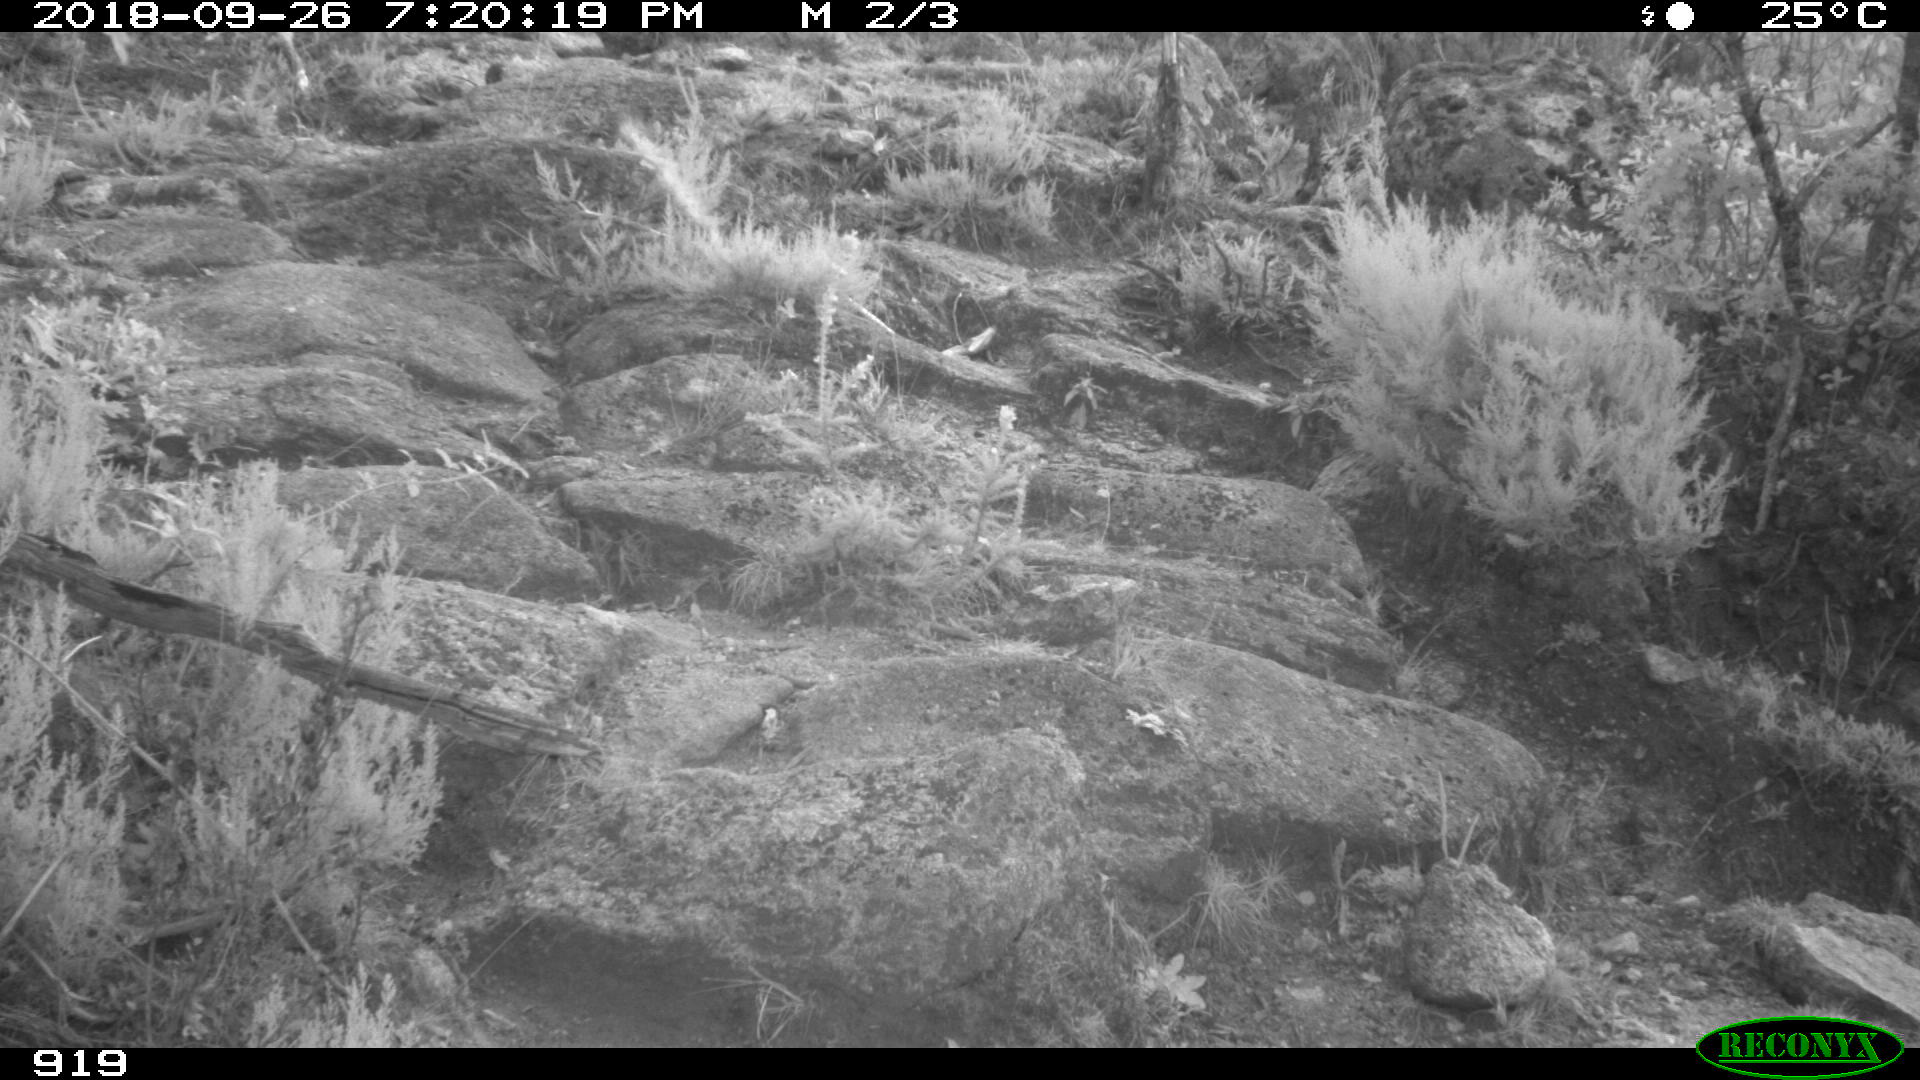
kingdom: Animalia
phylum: Chordata
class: Mammalia
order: Artiodactyla
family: Bovidae
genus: Bos
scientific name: Bos taurus
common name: Domesticated cattle
